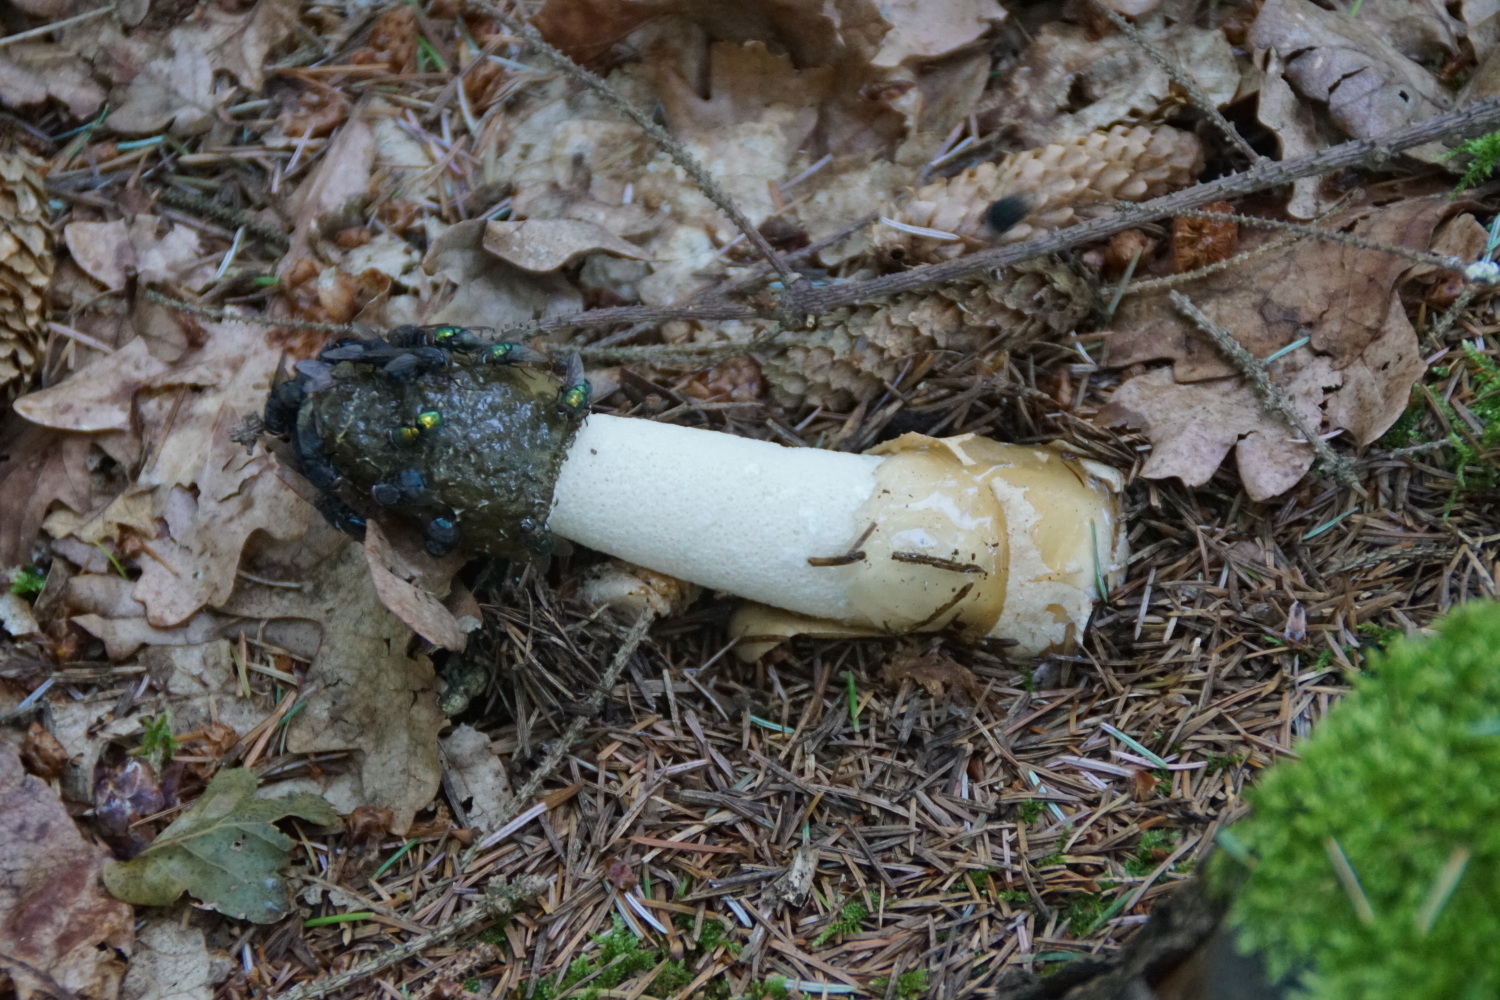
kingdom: Fungi
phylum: Basidiomycota
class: Agaricomycetes
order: Phallales
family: Phallaceae
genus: Phallus
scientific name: Phallus impudicus
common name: almindelig stinksvamp
